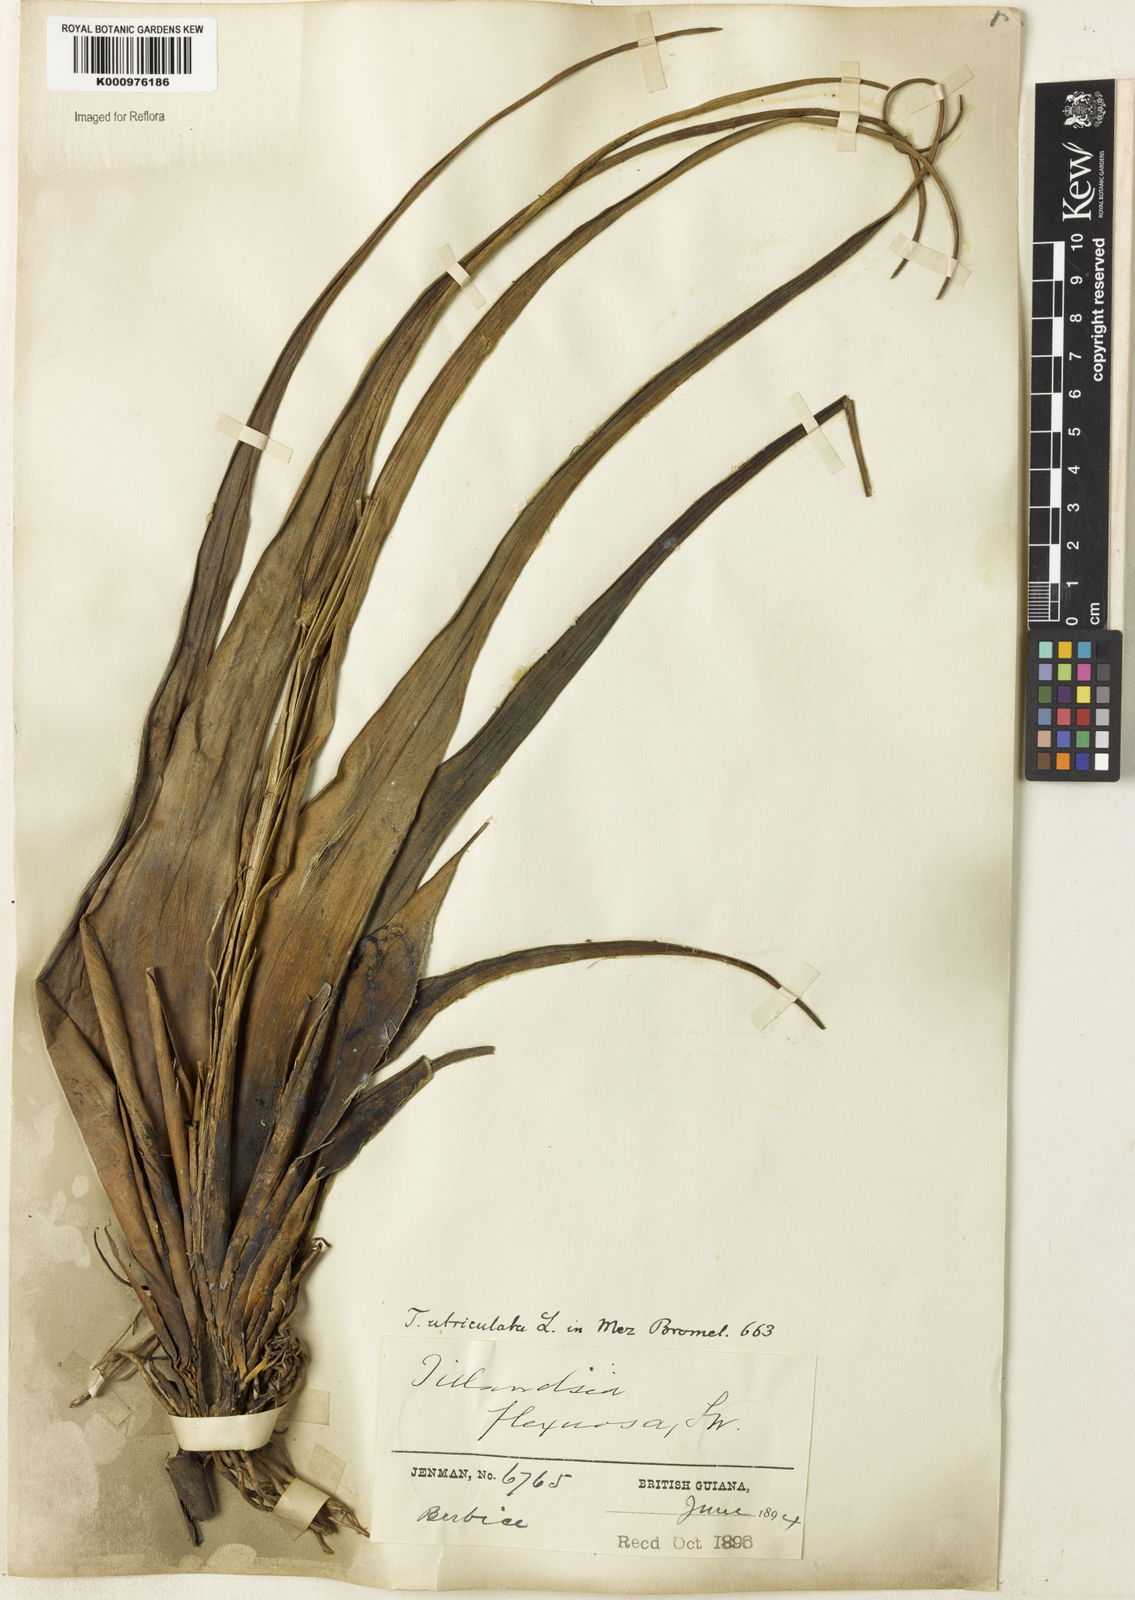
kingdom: Plantae
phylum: Tracheophyta
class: Liliopsida
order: Poales
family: Bromeliaceae
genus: Tillandsia
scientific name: Tillandsia flexuosa
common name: Banded airplant
